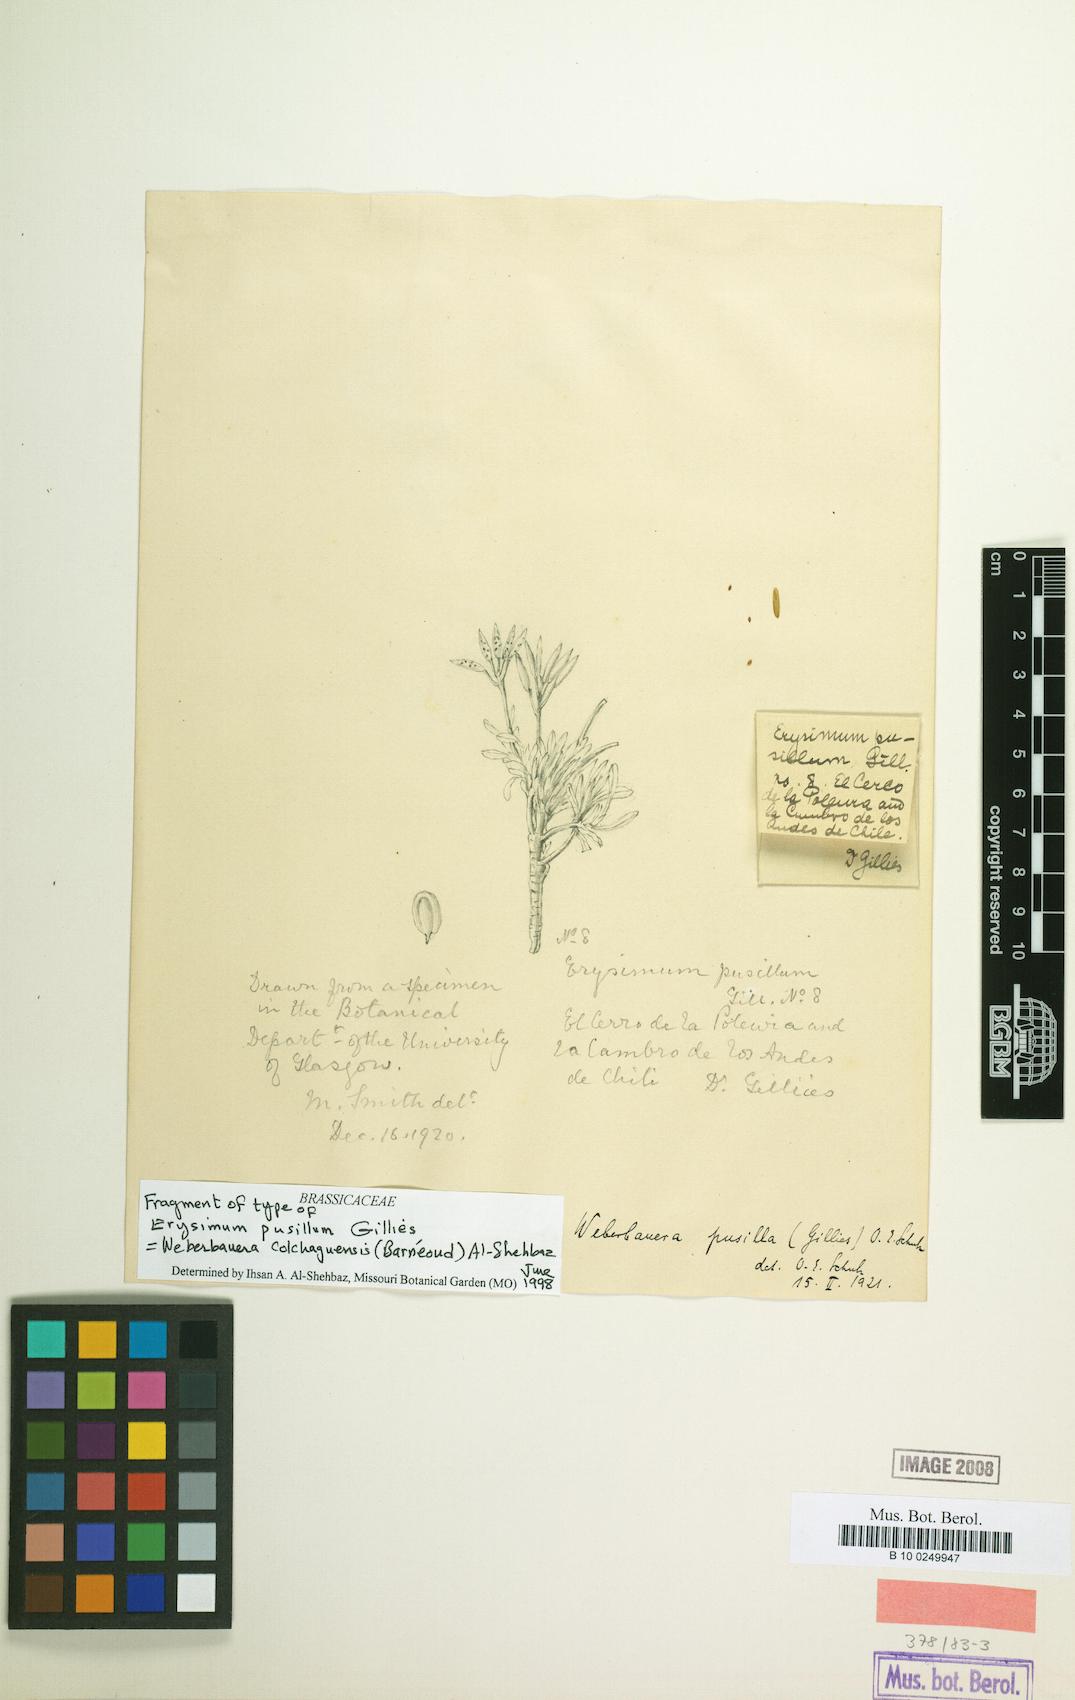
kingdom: Plantae
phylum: Tracheophyta
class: Magnoliopsida
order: Brassicales
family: Brassicaceae
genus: Stenodraba
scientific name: Stenodraba colchaguensis
